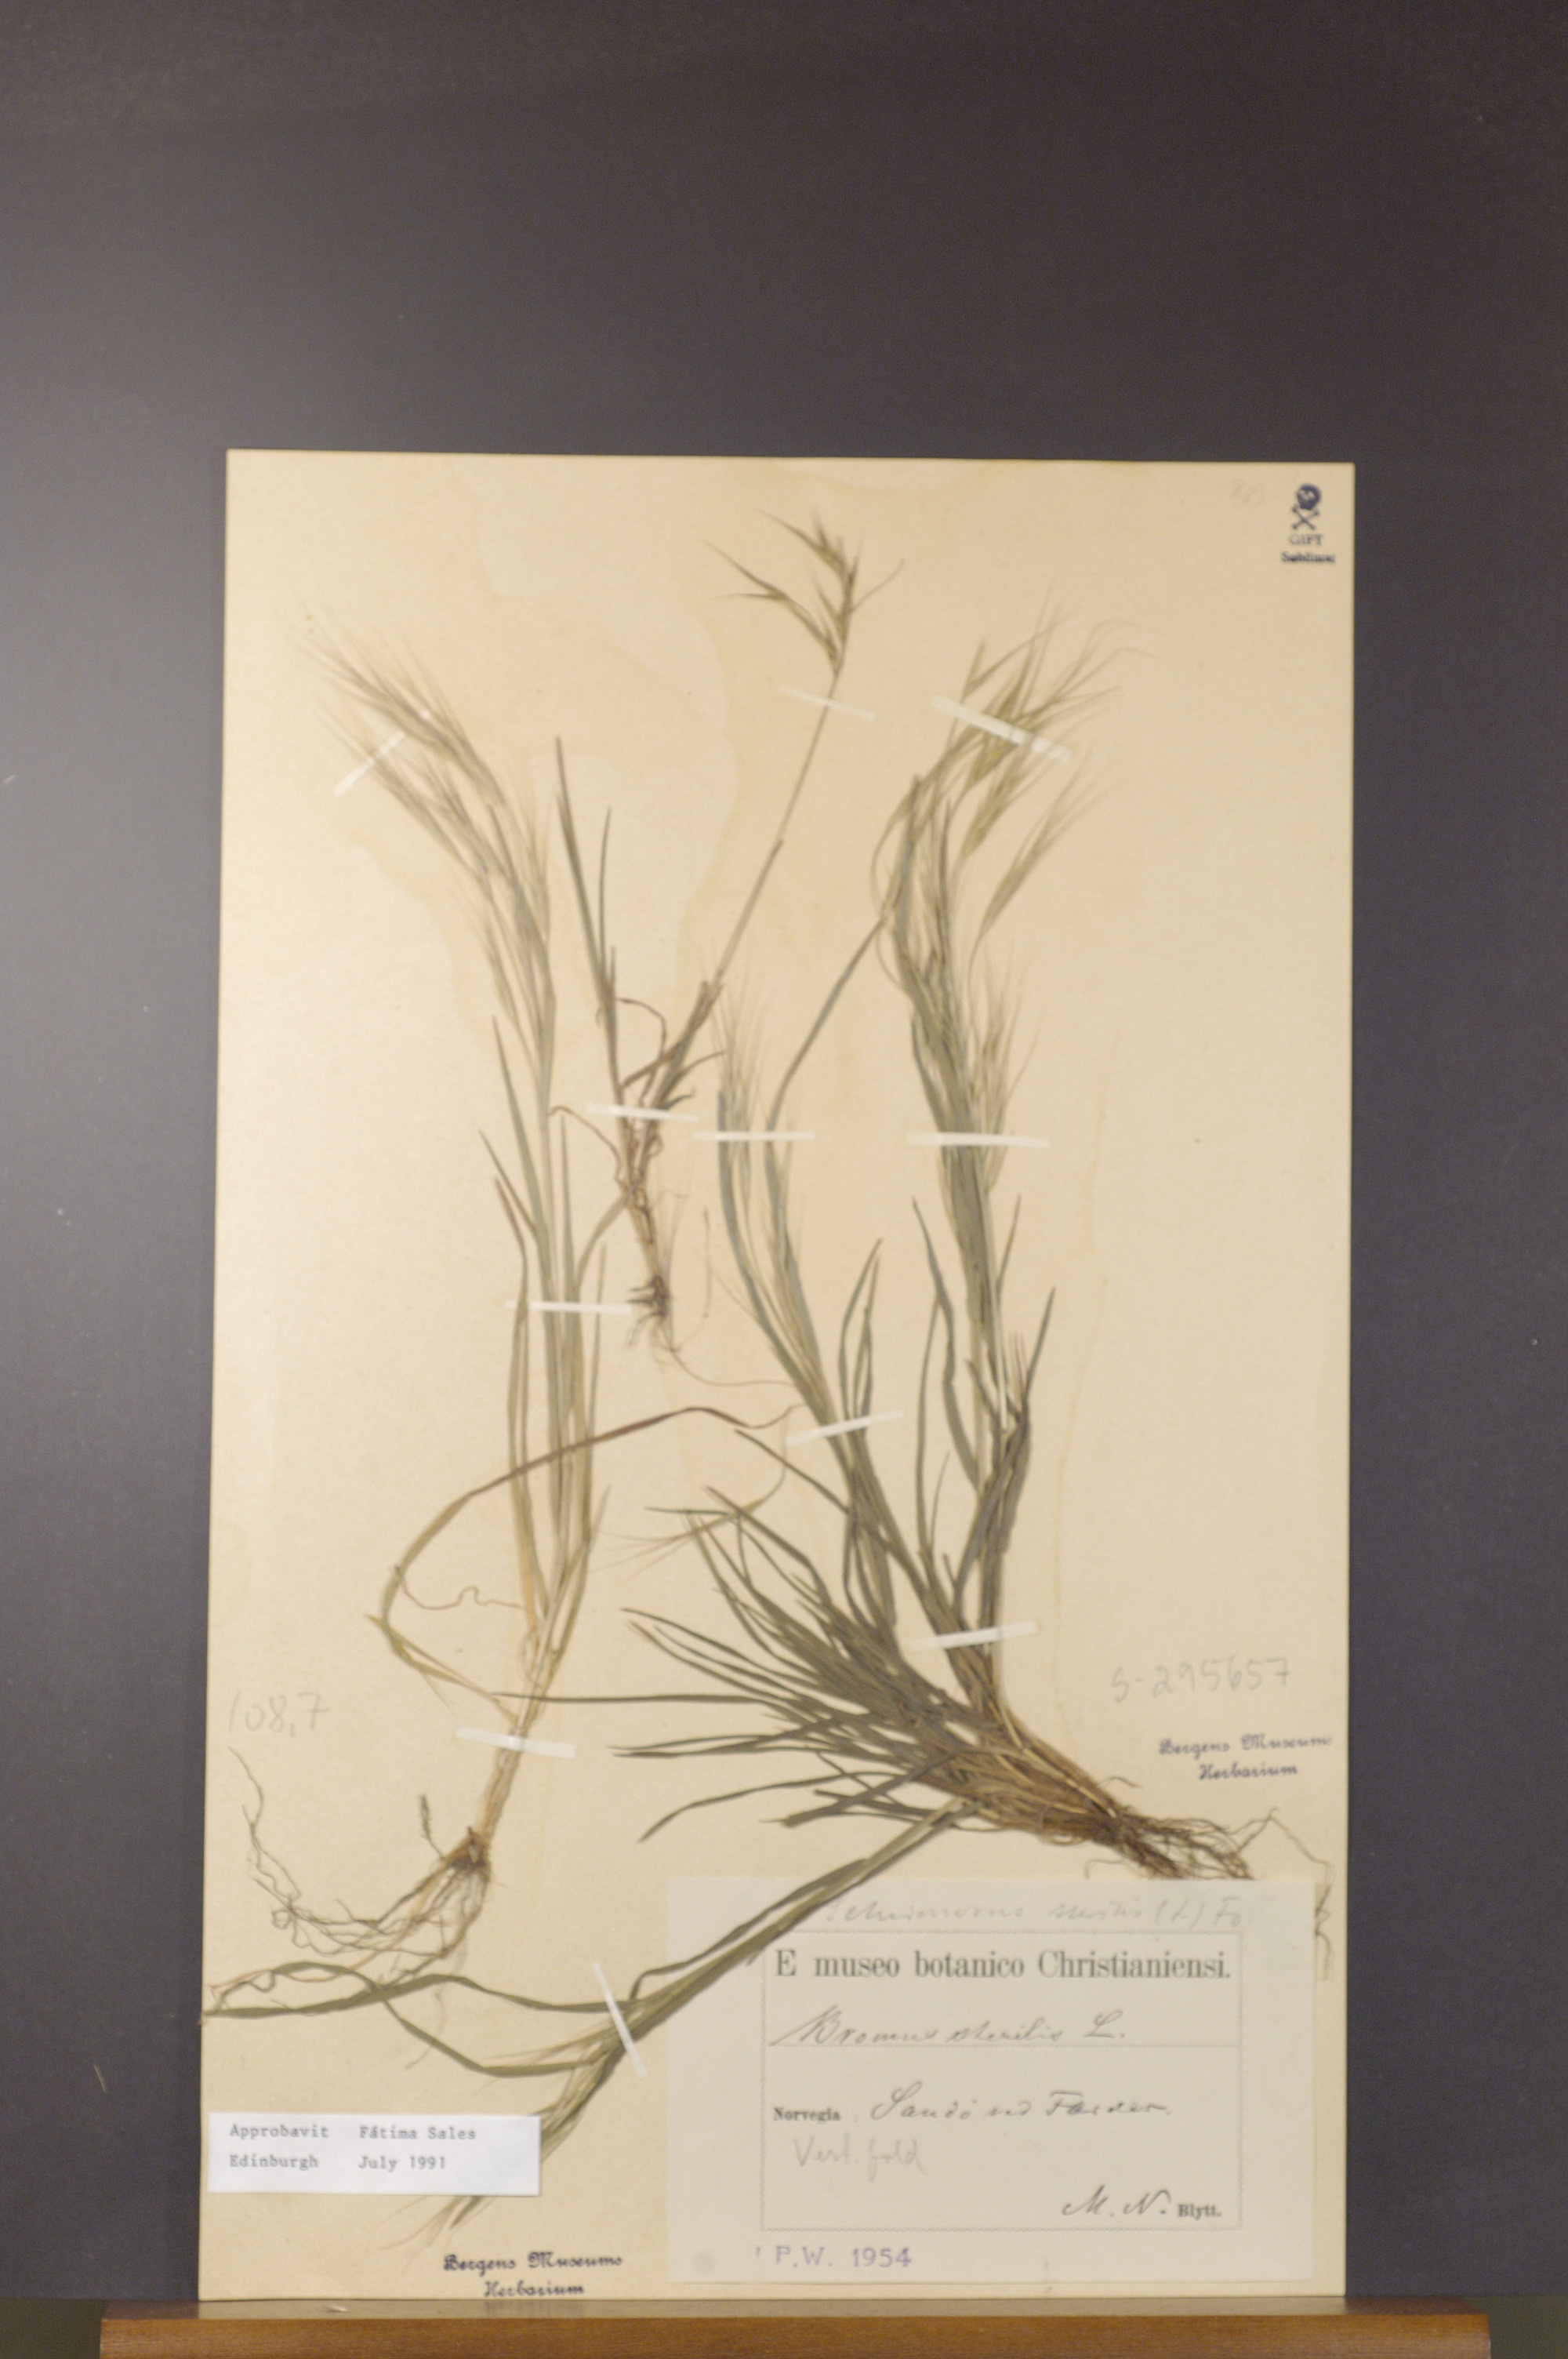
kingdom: Plantae
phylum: Tracheophyta
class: Liliopsida
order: Poales
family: Poaceae
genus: Bromus
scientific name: Bromus sterilis
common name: Poverty brome
